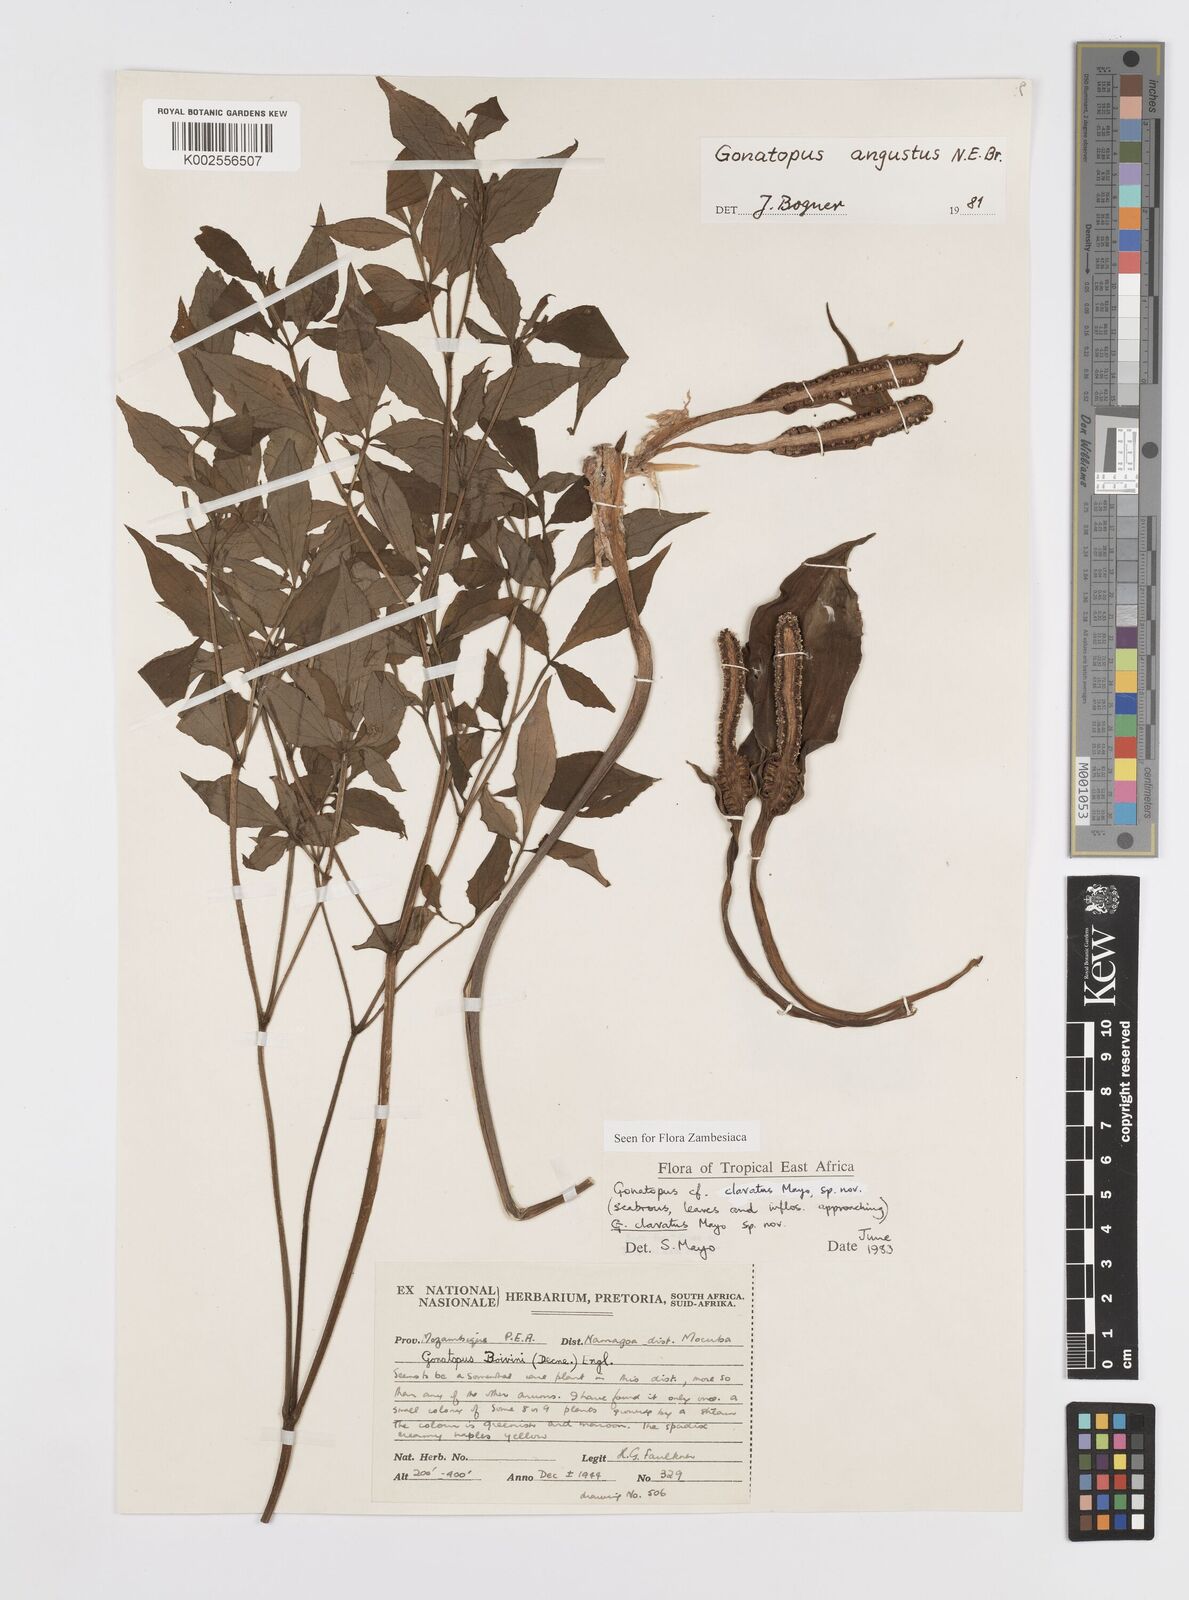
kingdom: Plantae
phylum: Tracheophyta
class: Liliopsida
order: Alismatales
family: Araceae
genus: Gonatopus
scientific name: Gonatopus clavatus
